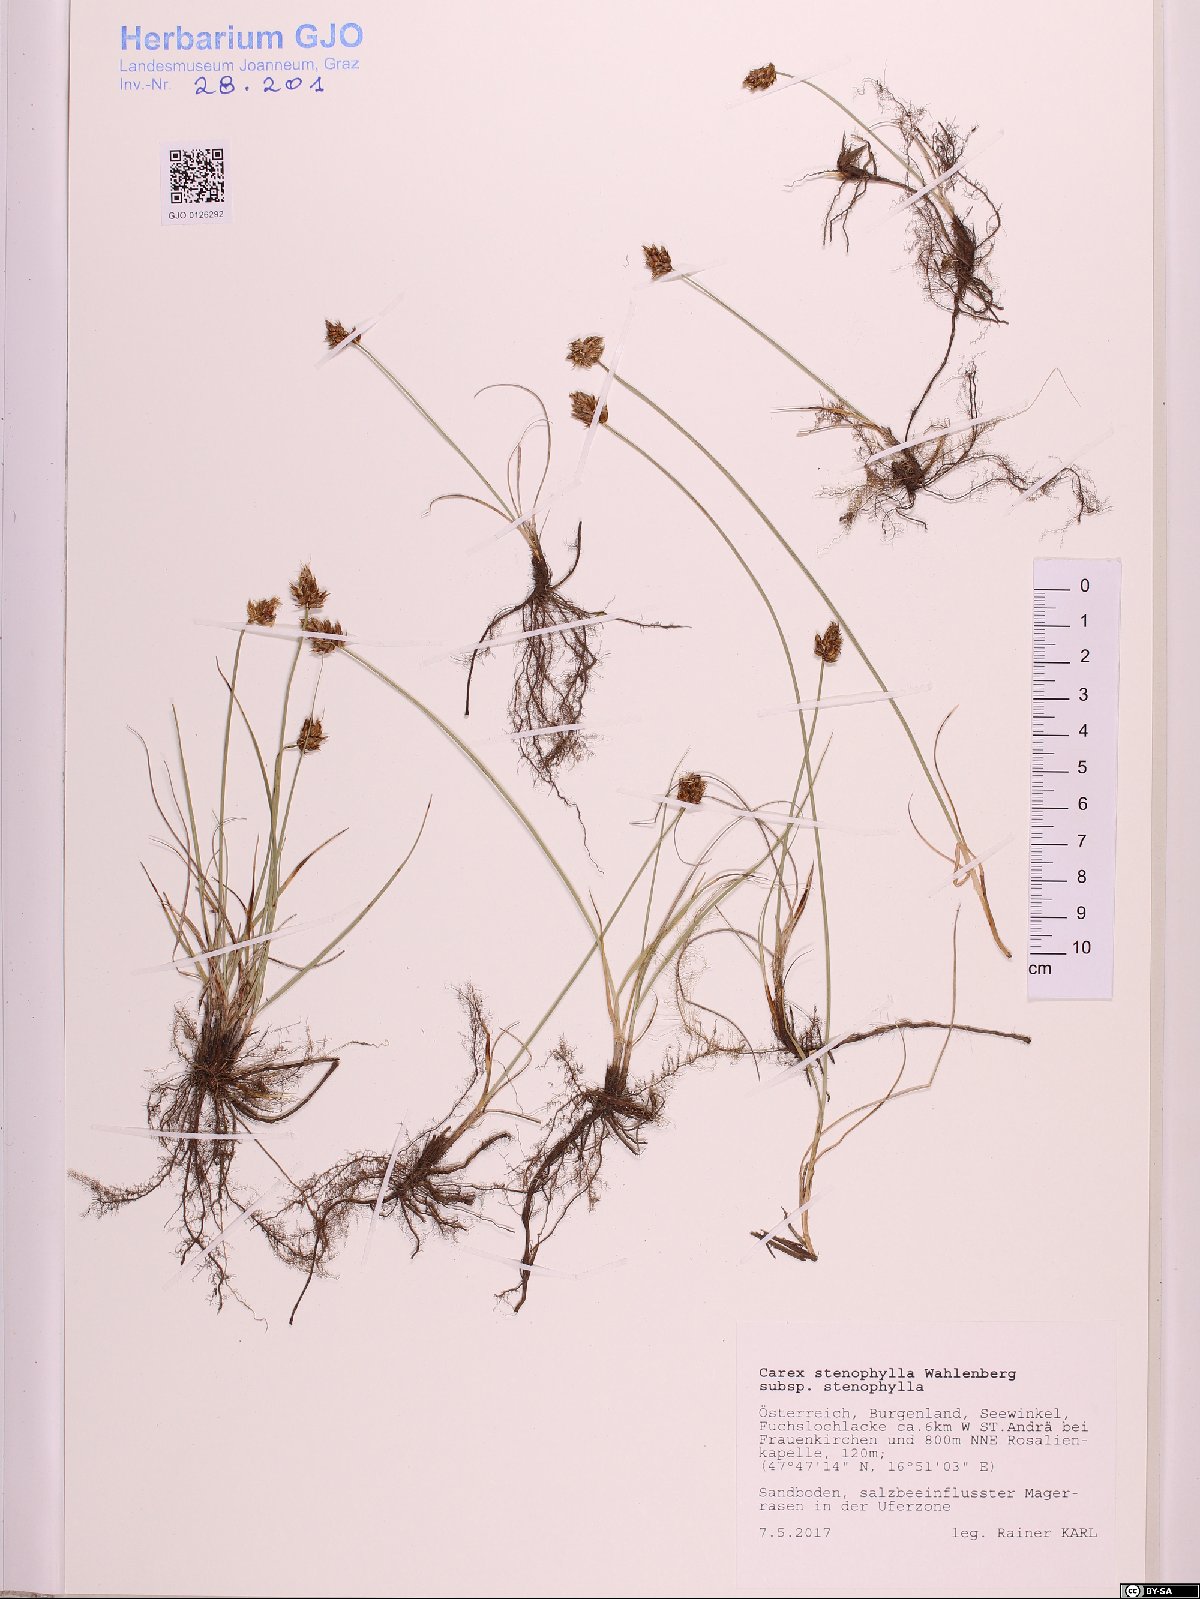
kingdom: Plantae
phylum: Tracheophyta
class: Liliopsida
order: Poales
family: Cyperaceae
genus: Carex
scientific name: Carex stenophylla
